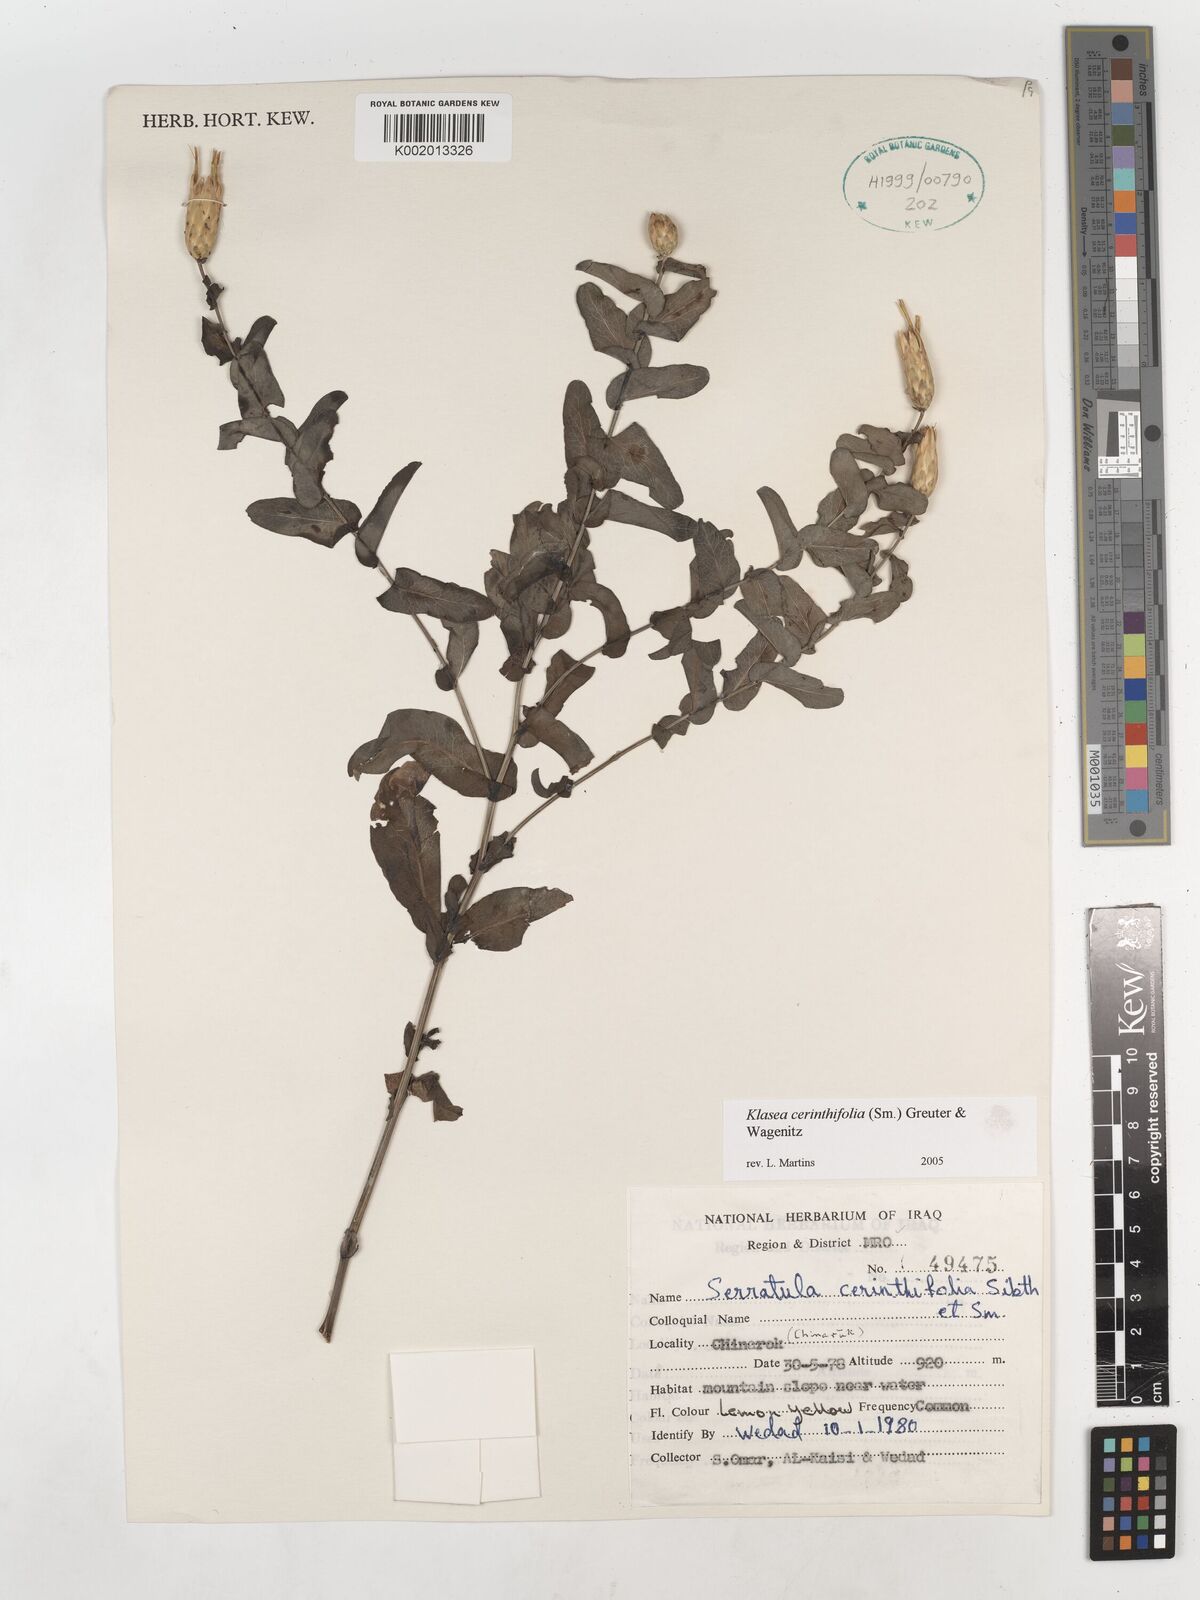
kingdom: Plantae
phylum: Tracheophyta
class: Magnoliopsida
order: Asterales
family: Asteraceae
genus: Klasea
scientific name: Klasea cerinthifolia
